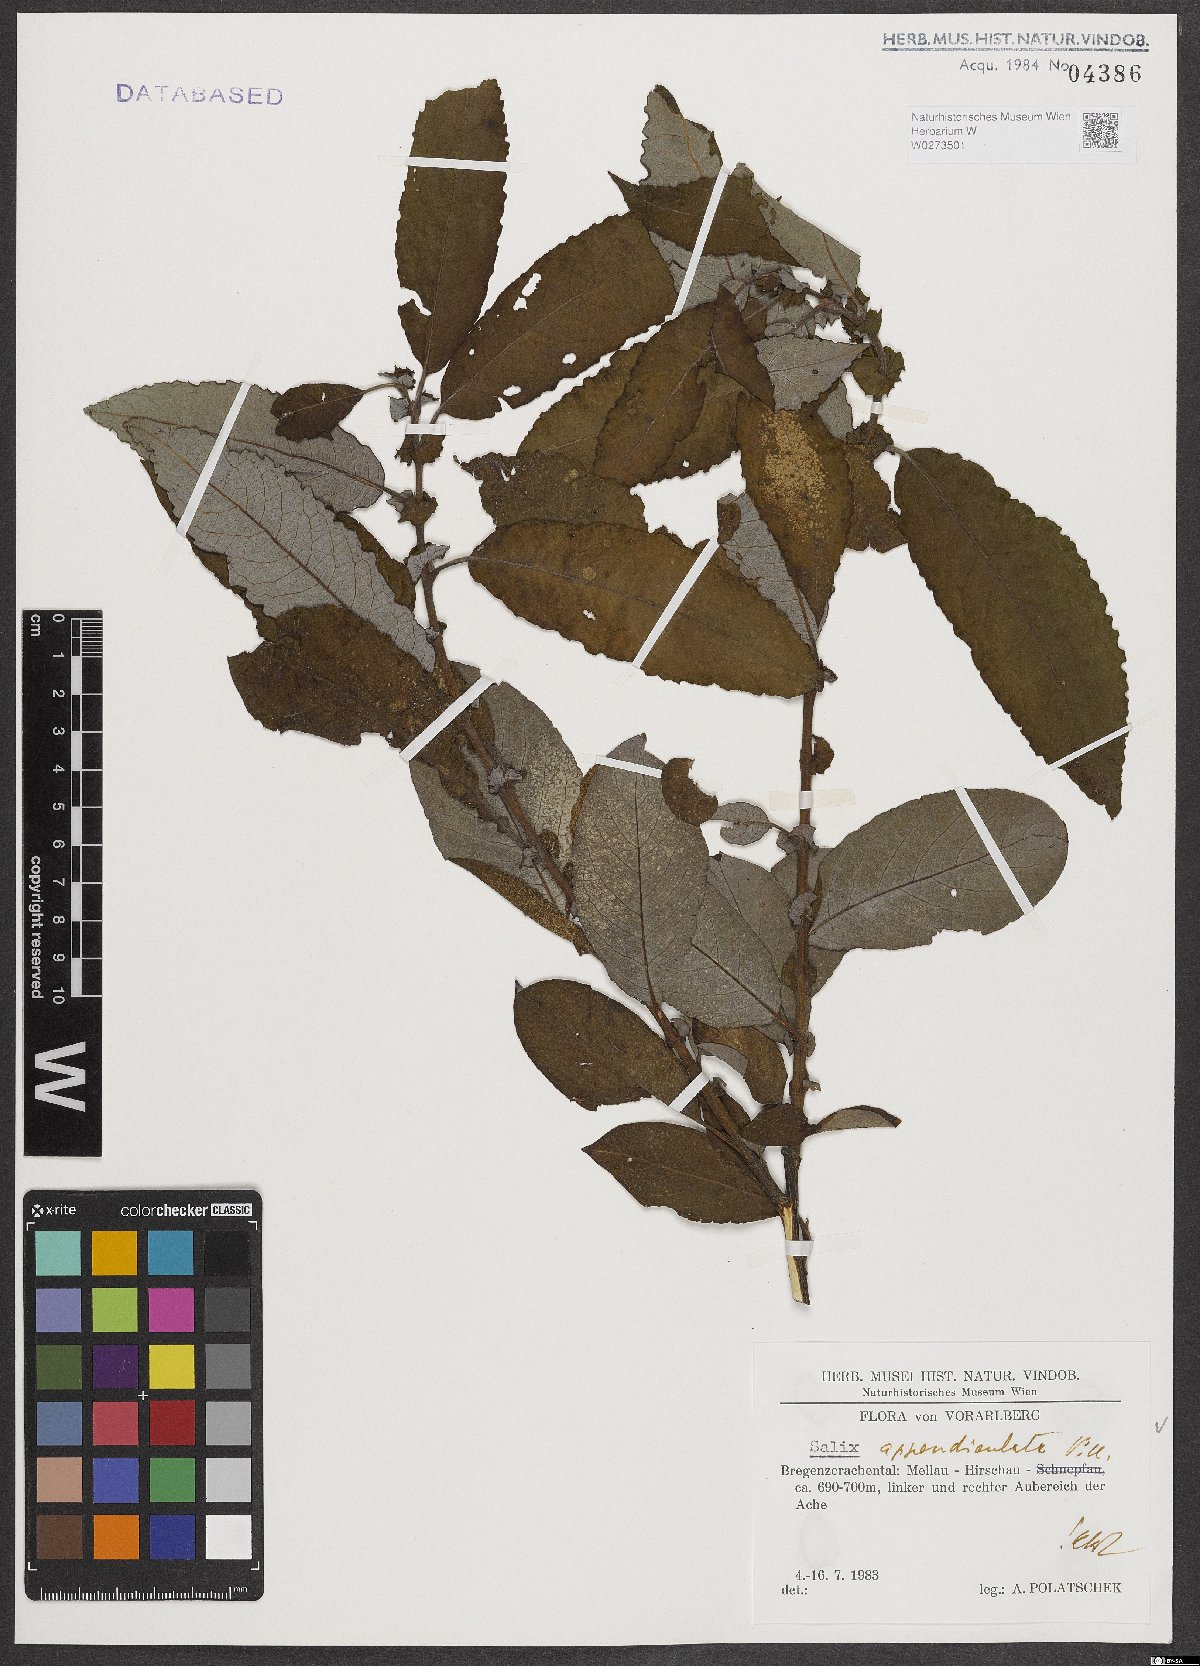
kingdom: Plantae
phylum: Tracheophyta
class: Magnoliopsida
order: Malpighiales
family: Salicaceae
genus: Salix
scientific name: Salix appendiculata
